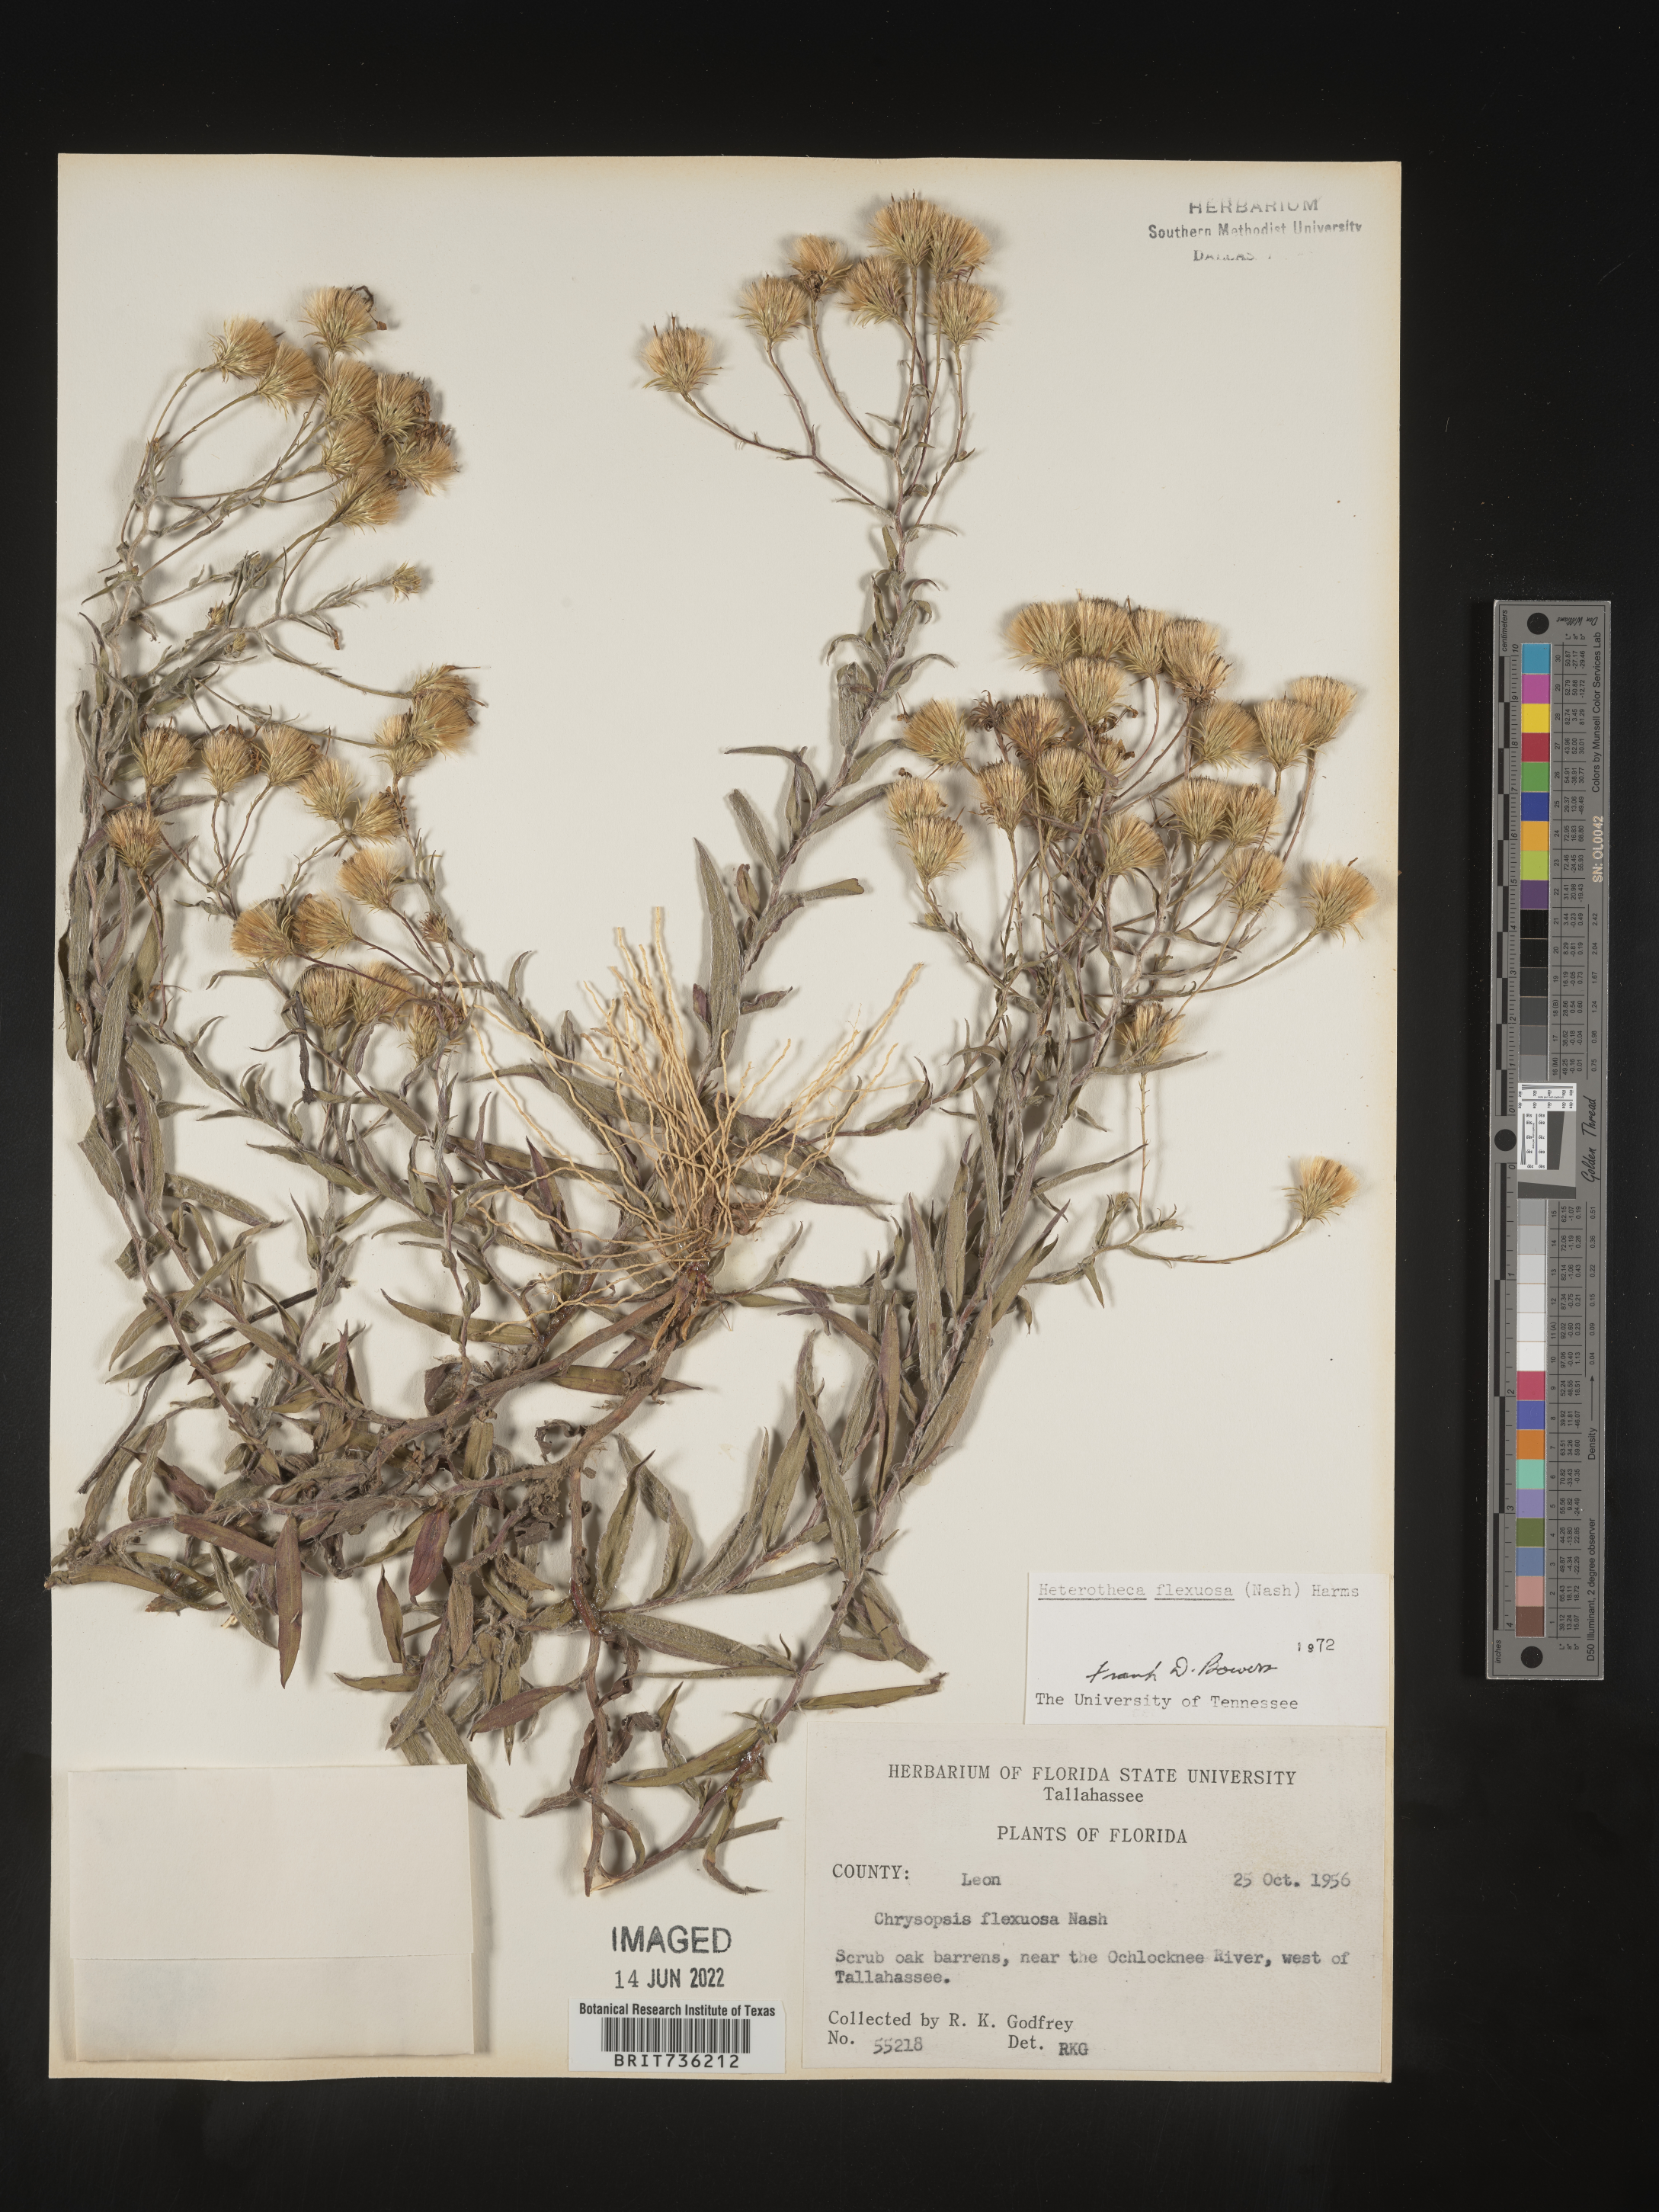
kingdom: Plantae
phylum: Tracheophyta
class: Magnoliopsida
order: Asterales
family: Asteraceae
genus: Pityopsis
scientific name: Pityopsis flexuosa
